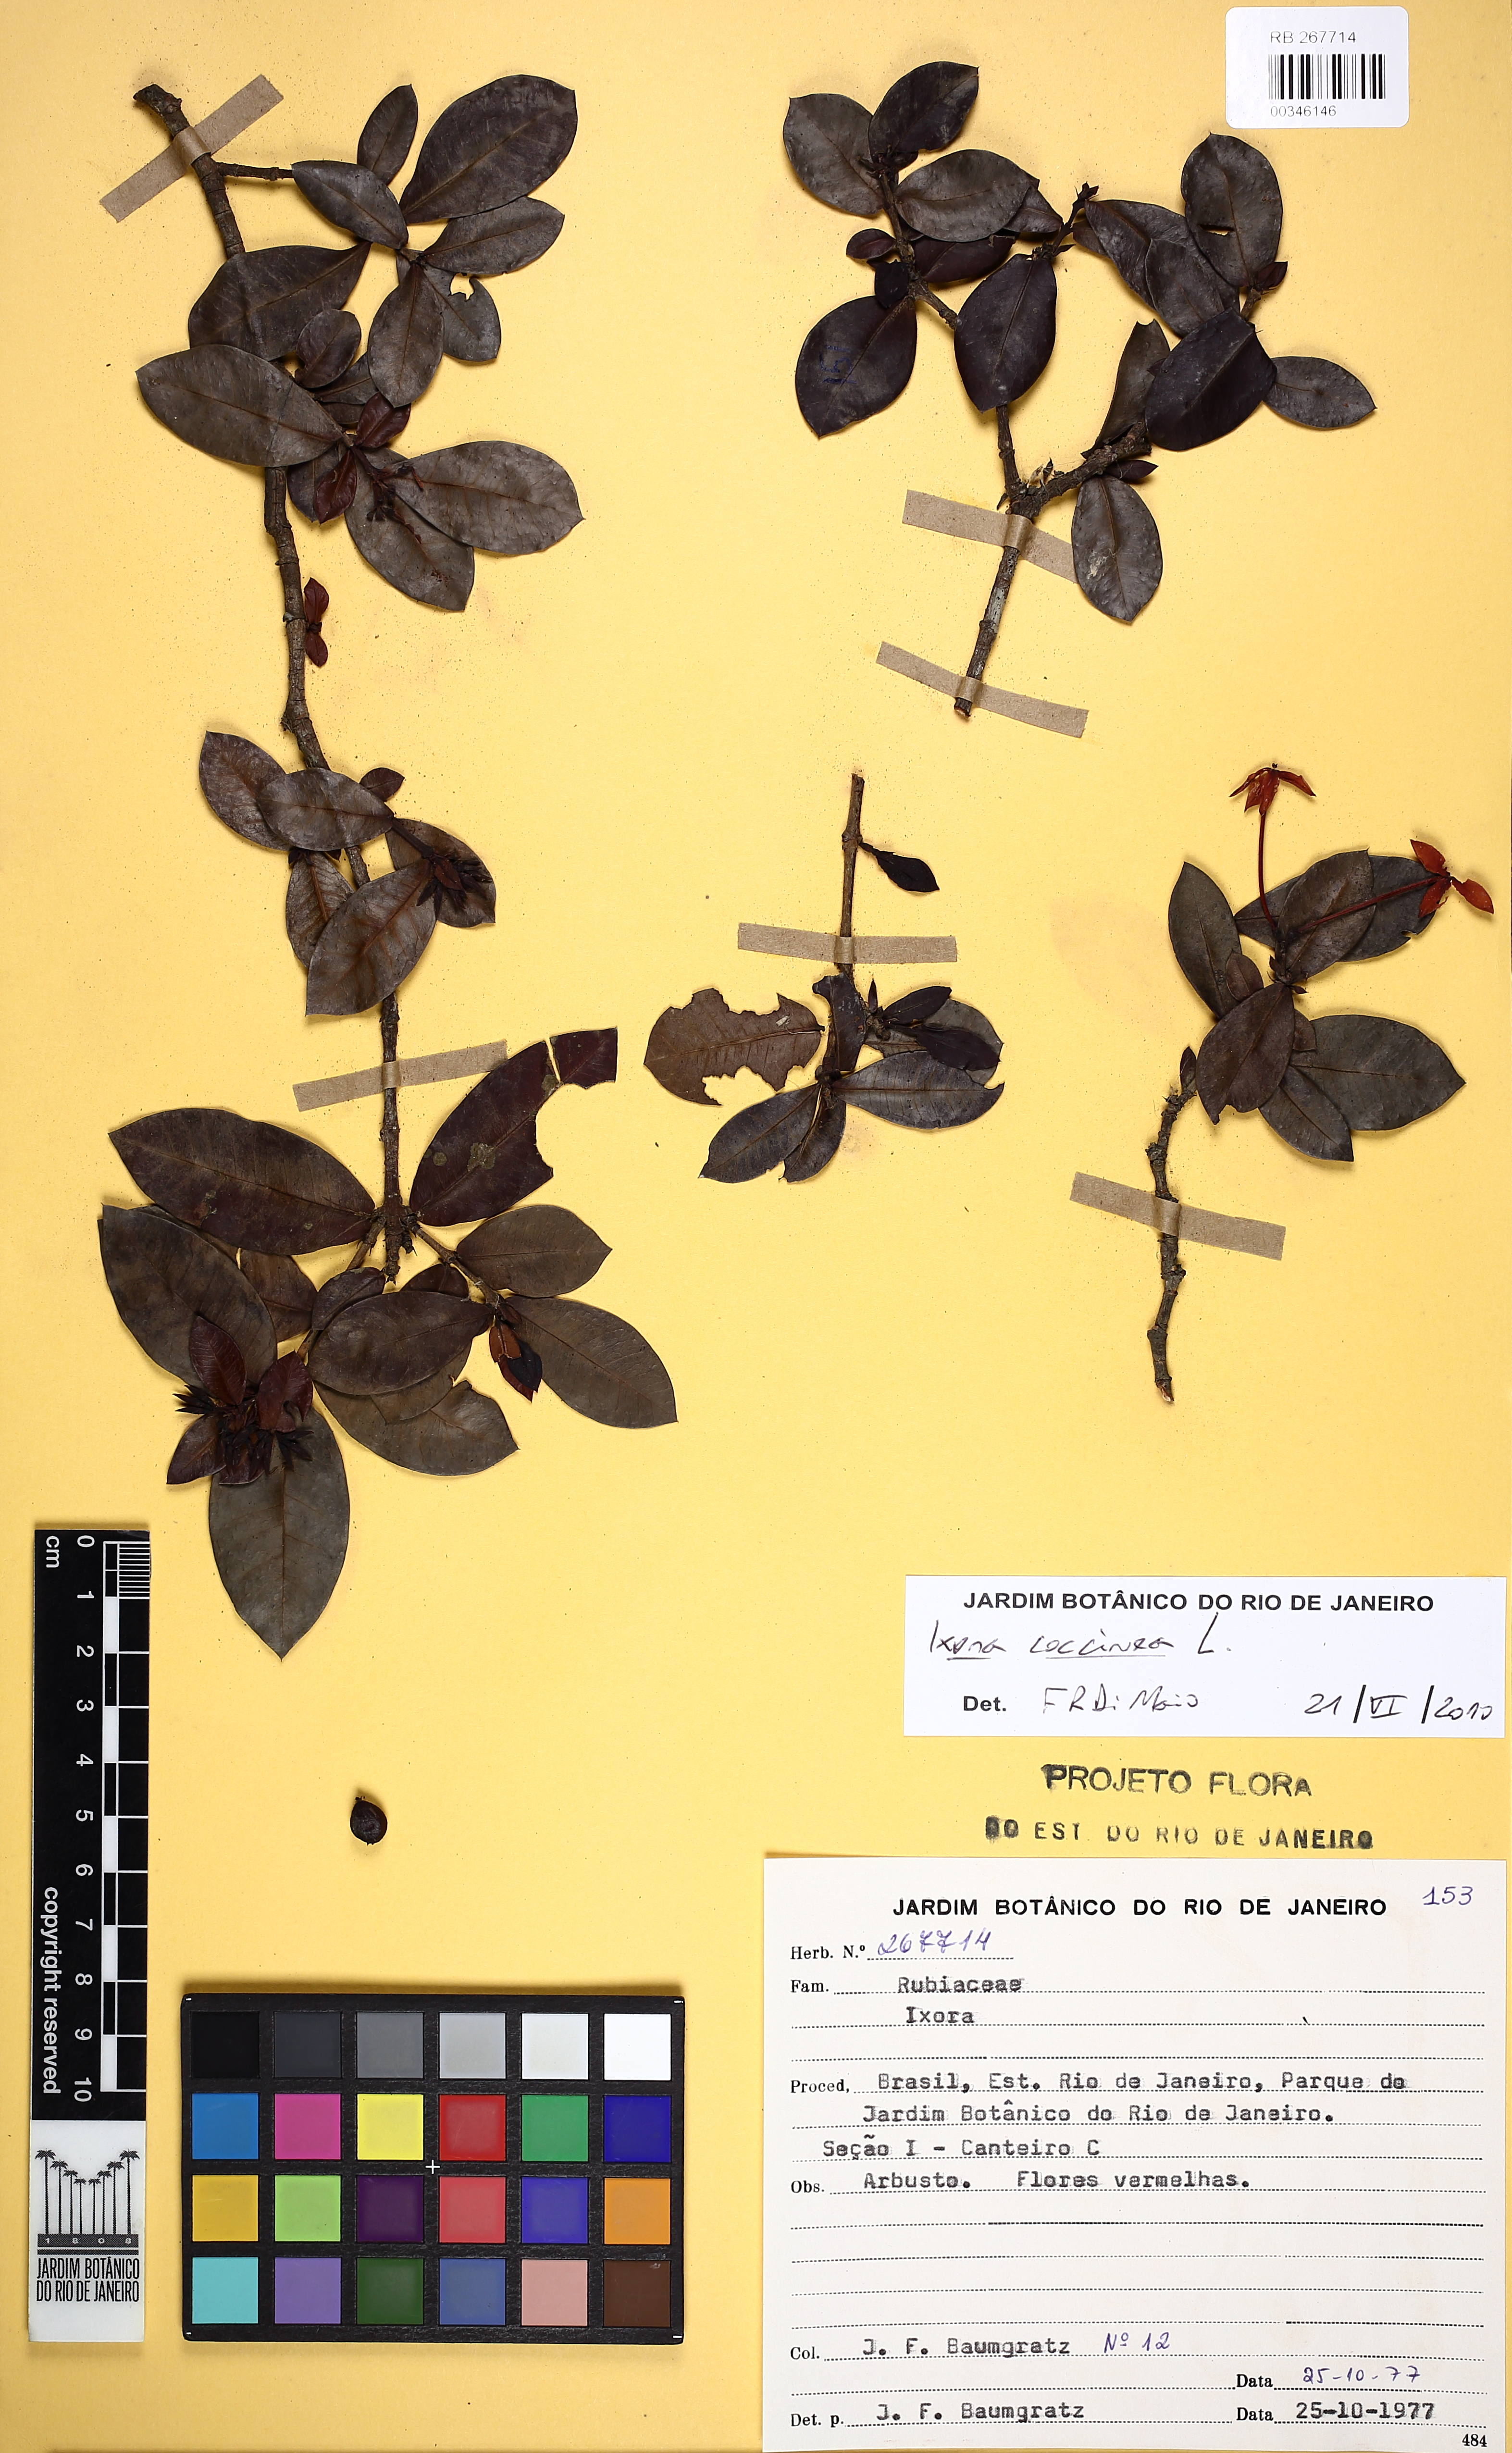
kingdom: Plantae
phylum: Tracheophyta
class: Magnoliopsida
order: Gentianales
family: Rubiaceae
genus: Ixora
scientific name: Ixora coccinea
